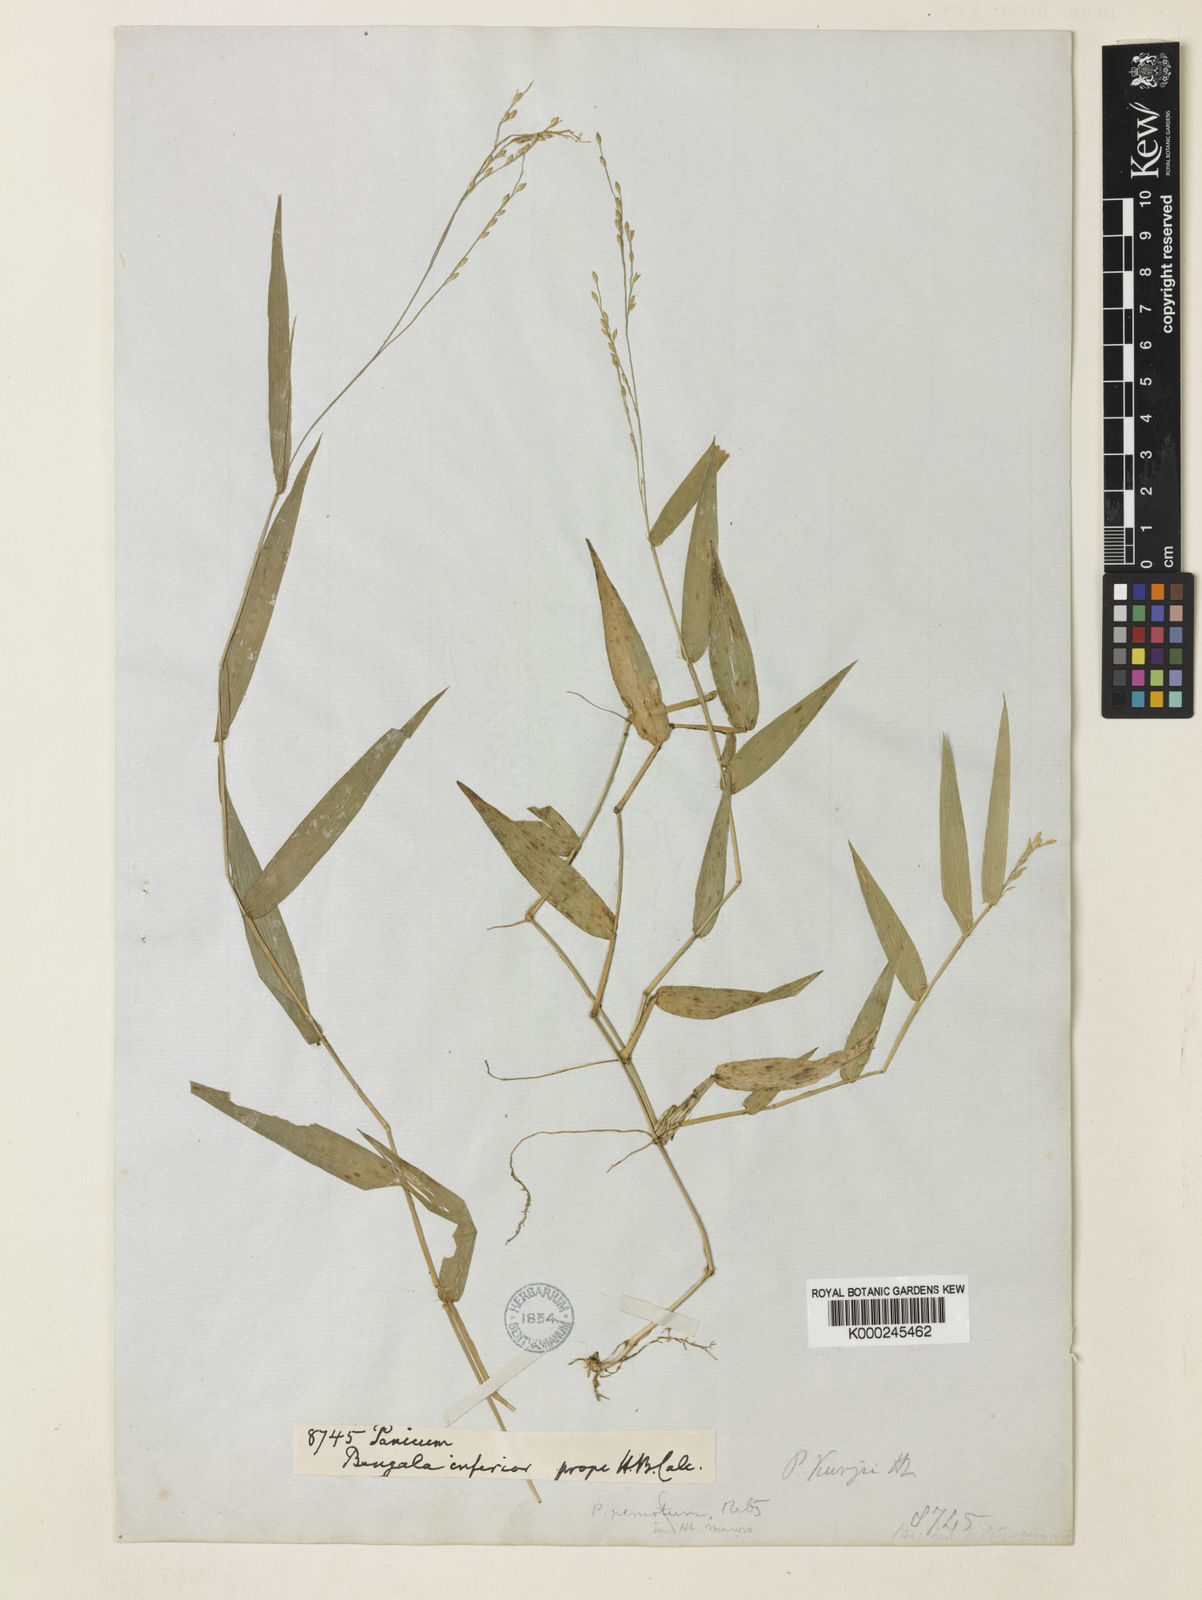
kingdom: Plantae
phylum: Tracheophyta
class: Liliopsida
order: Poales
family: Poaceae
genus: Urochloa
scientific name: Urochloa kurzii
